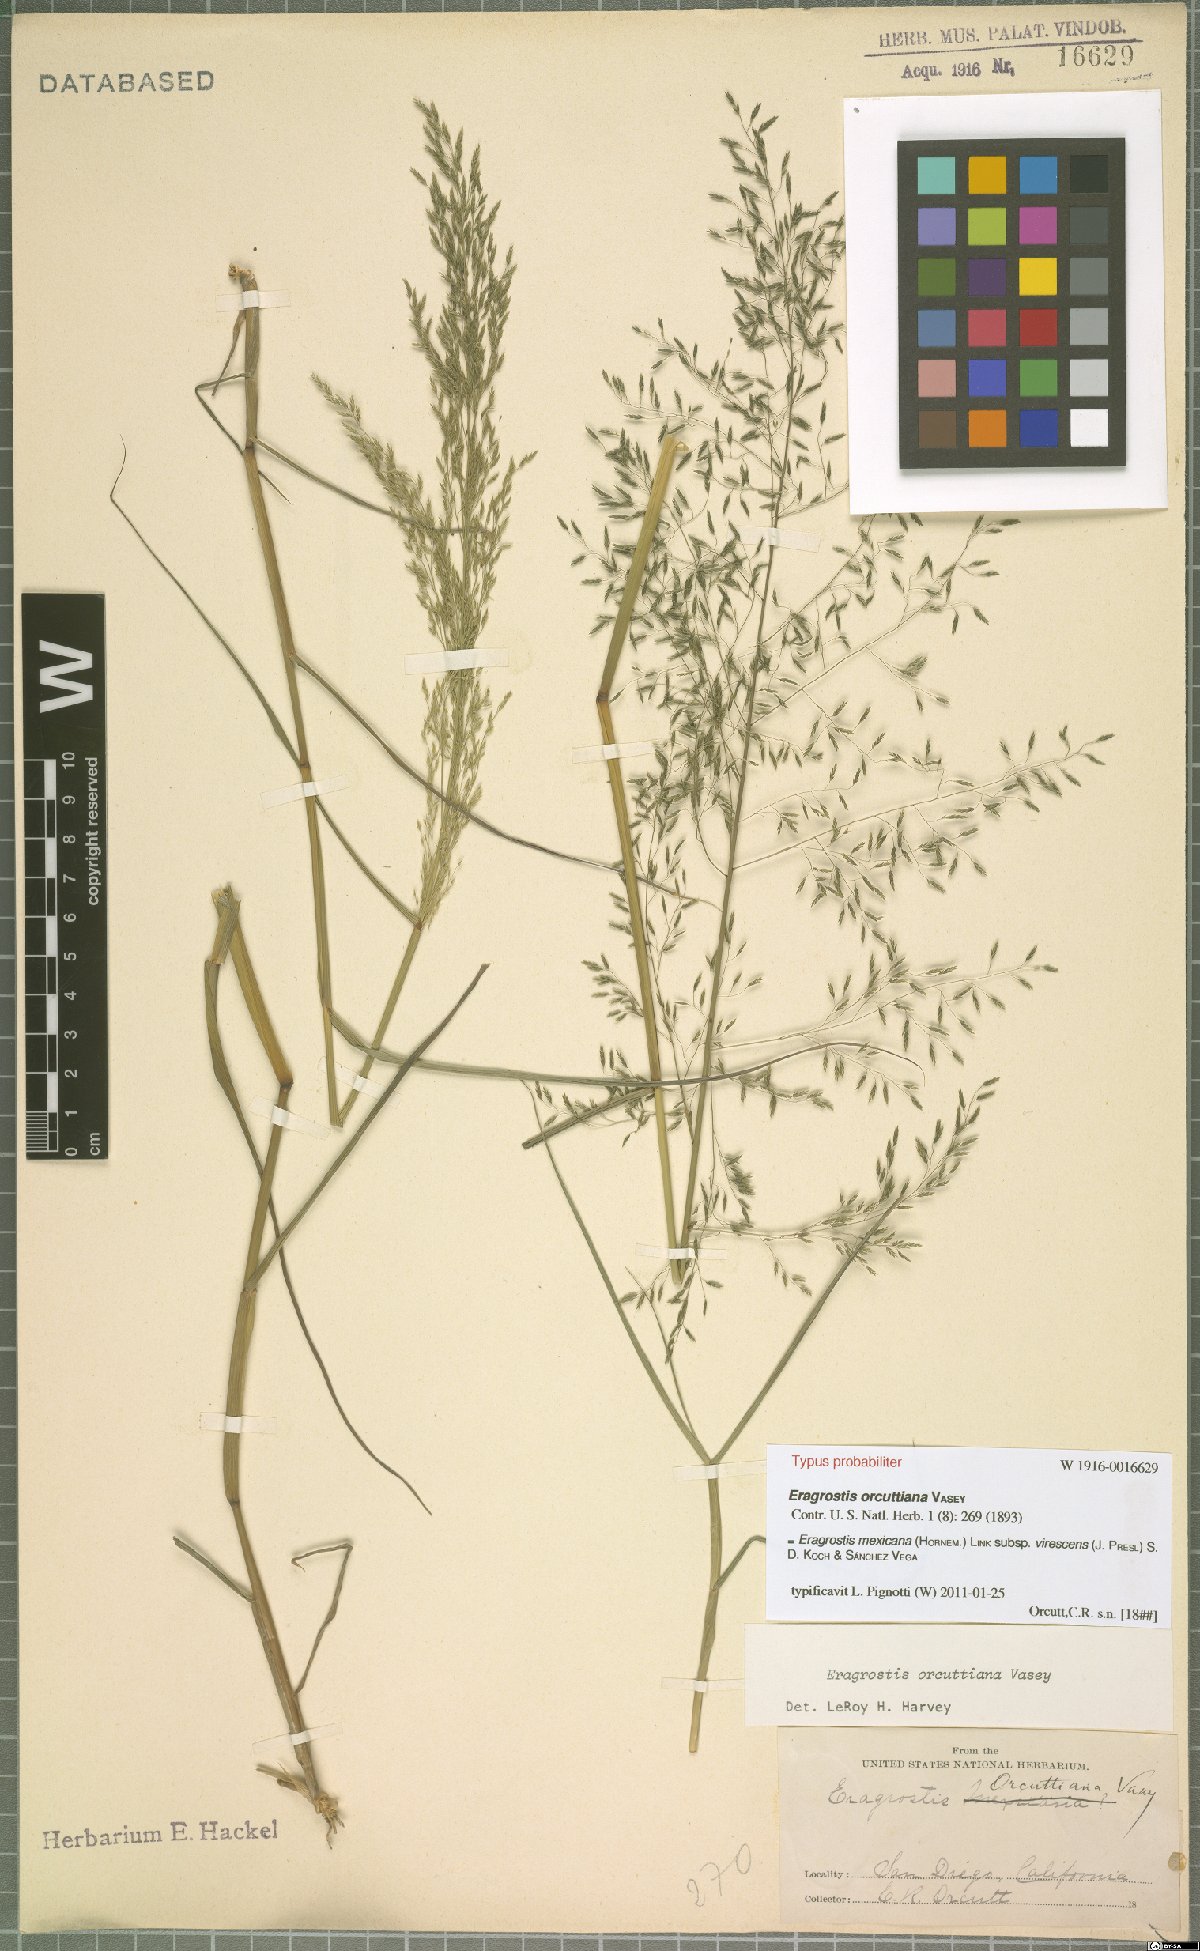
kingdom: Plantae
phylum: Tracheophyta
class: Liliopsida
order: Poales
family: Poaceae
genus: Eragrostis
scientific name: Eragrostis virescens
